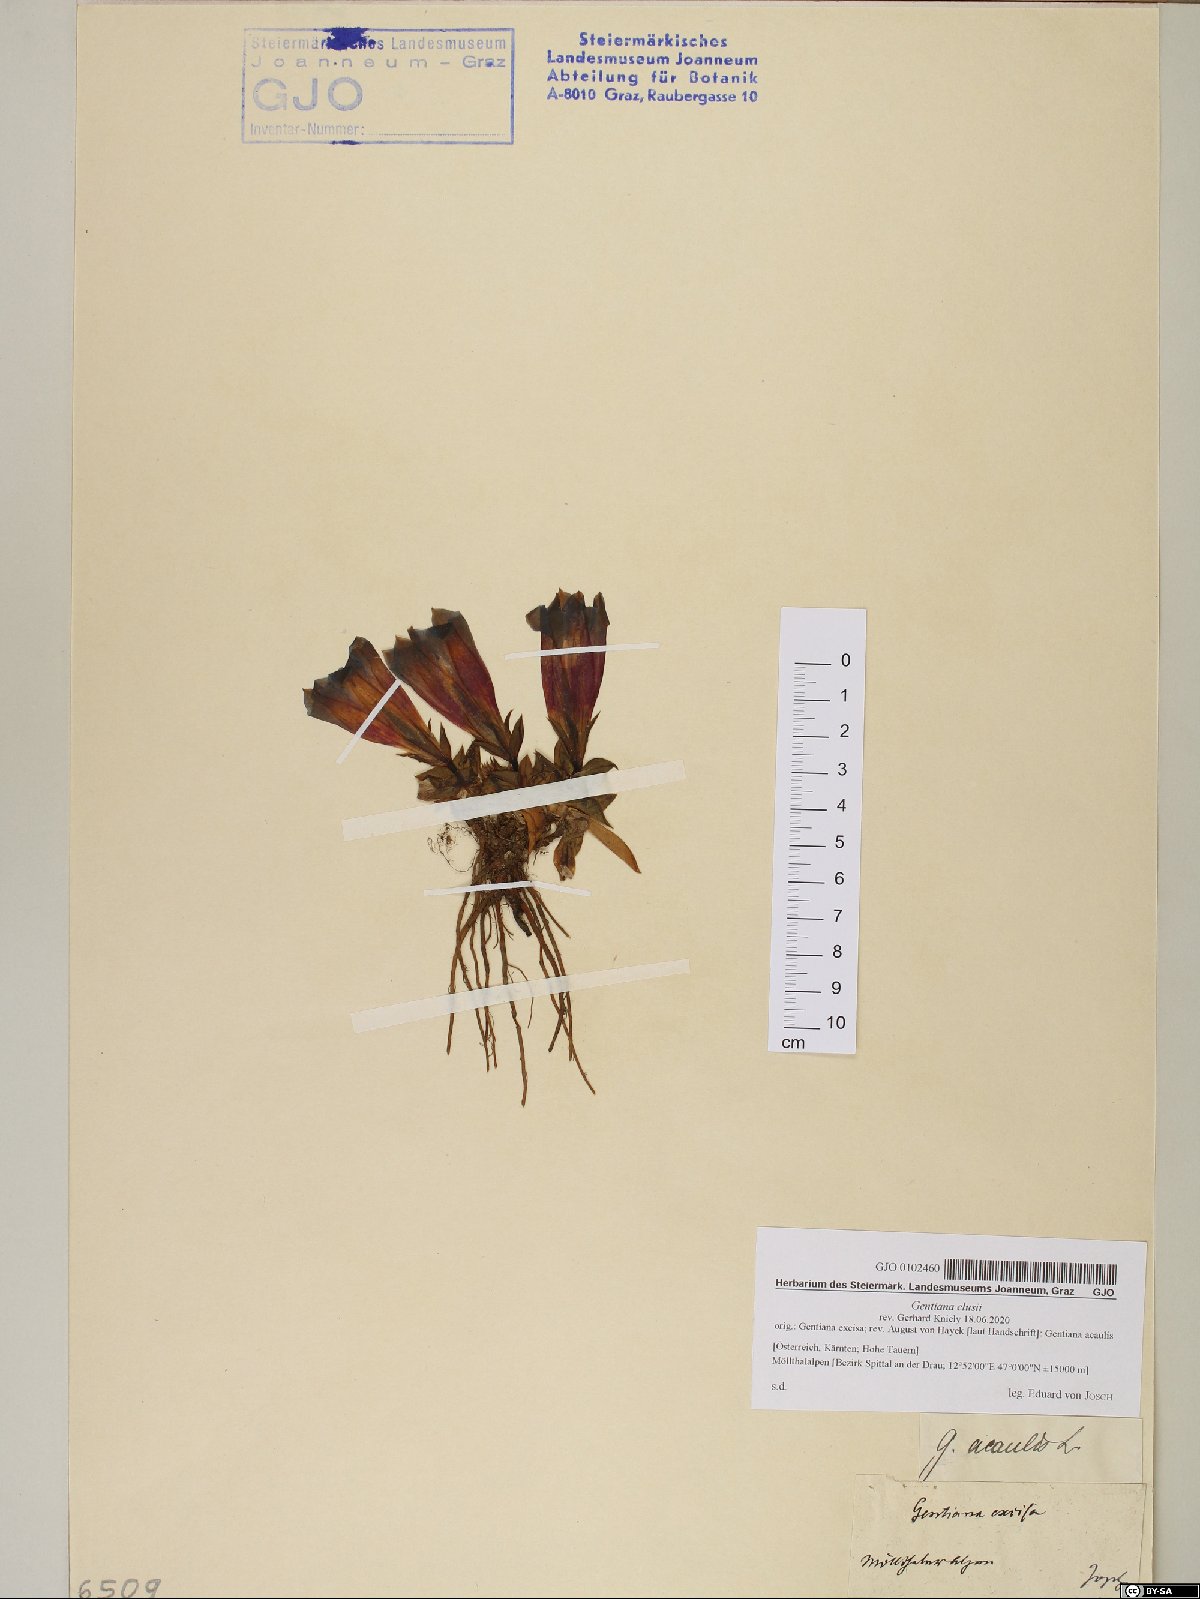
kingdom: Plantae
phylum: Tracheophyta
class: Magnoliopsida
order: Gentianales
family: Gentianaceae
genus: Gentiana
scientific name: Gentiana clusii
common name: Trumpet gentian
